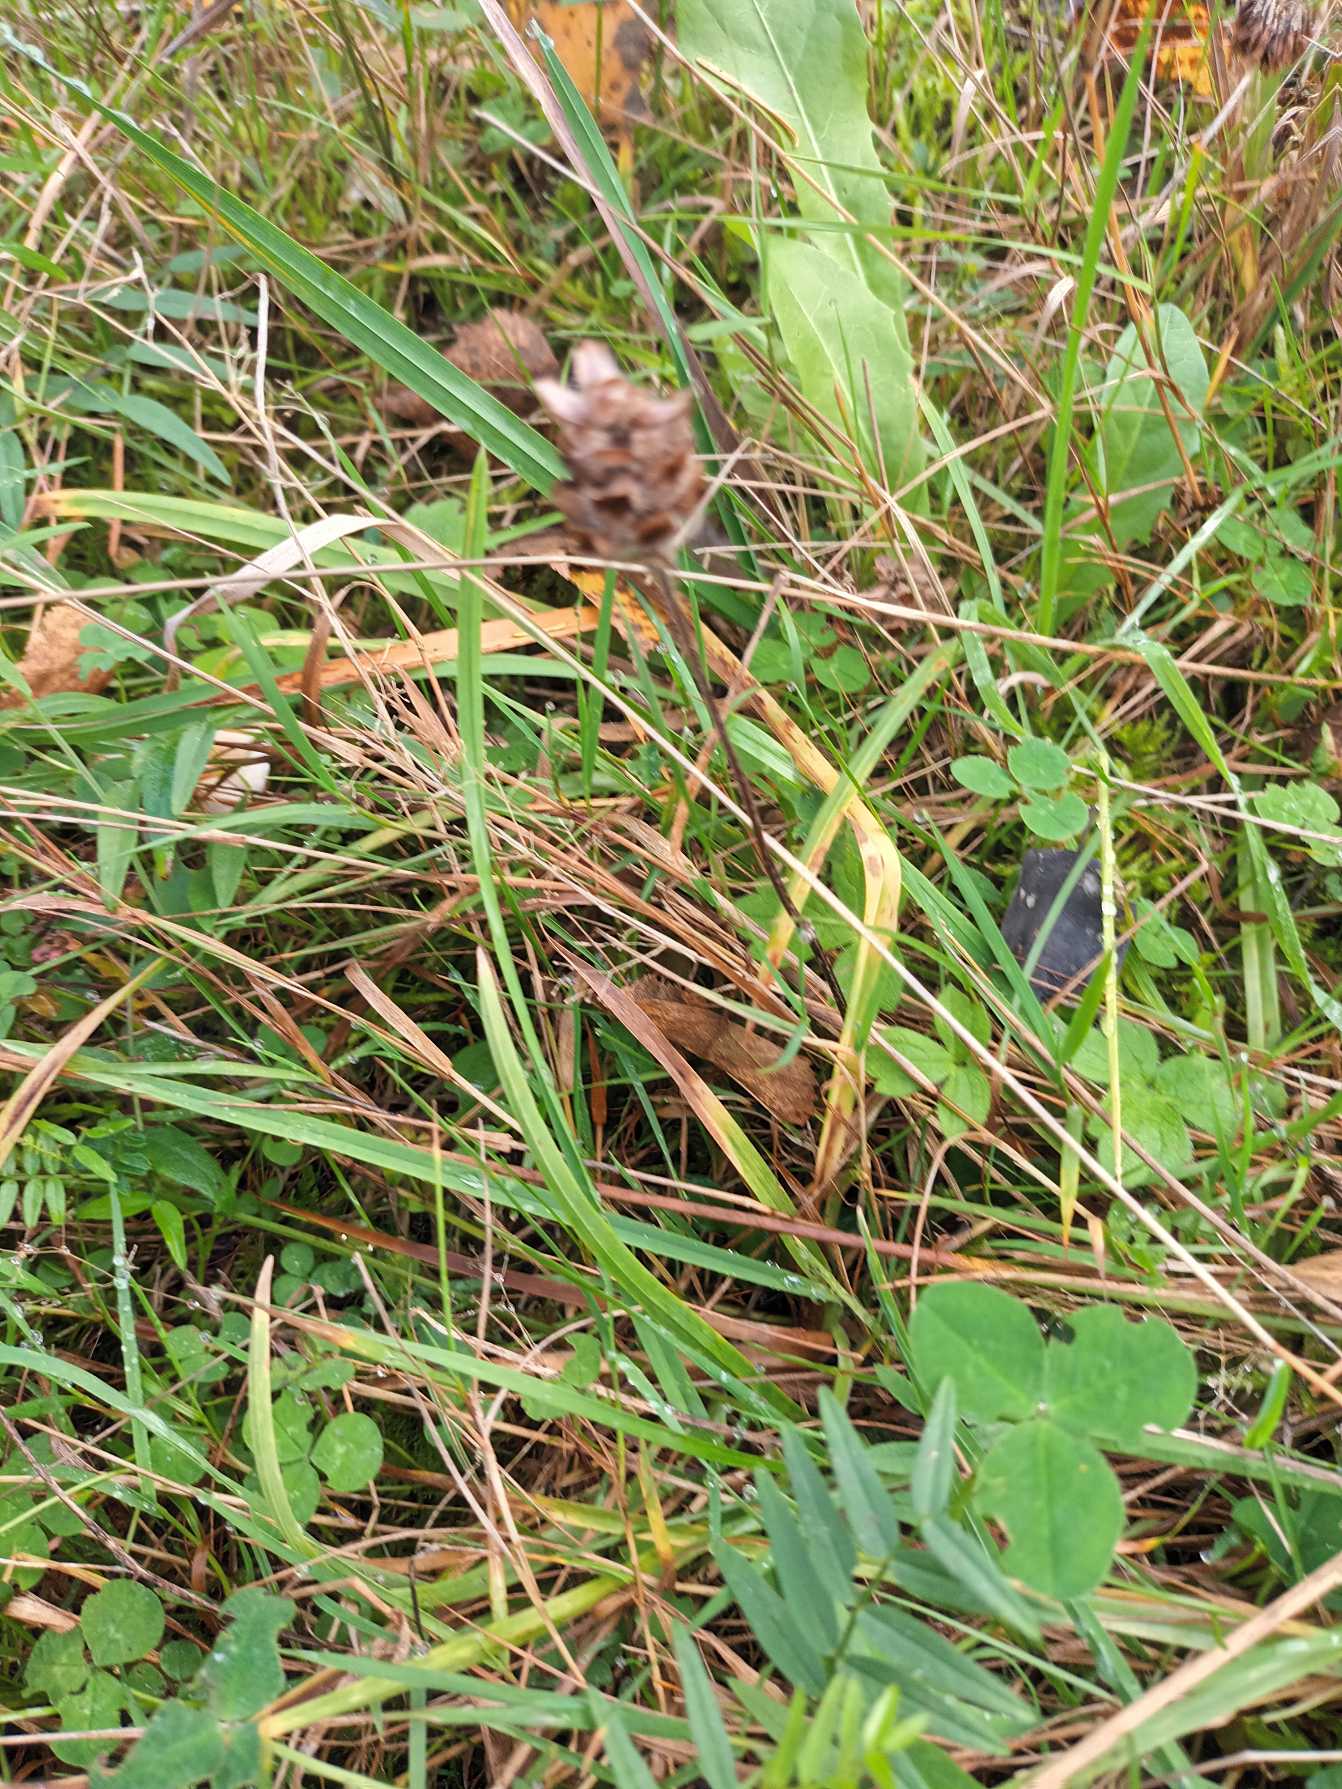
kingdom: Plantae
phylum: Tracheophyta
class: Magnoliopsida
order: Lamiales
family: Lamiaceae
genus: Prunella
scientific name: Prunella vulgaris
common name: Almindelig brunelle
